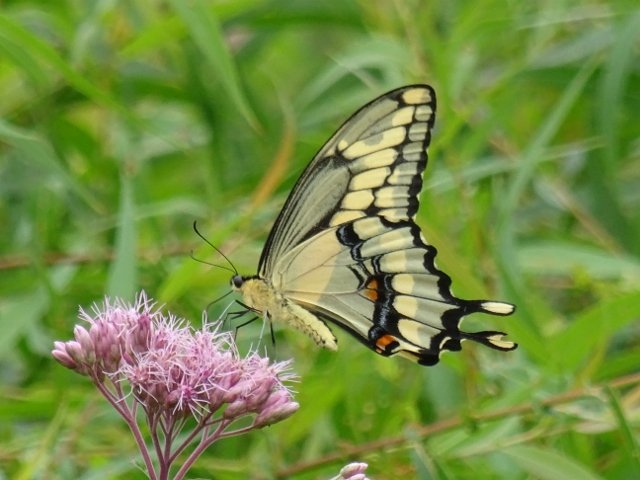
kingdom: Animalia
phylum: Arthropoda
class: Insecta
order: Lepidoptera
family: Papilionidae
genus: Papilio
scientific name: Papilio cresphontes
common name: Eastern Giant Swallowtail
